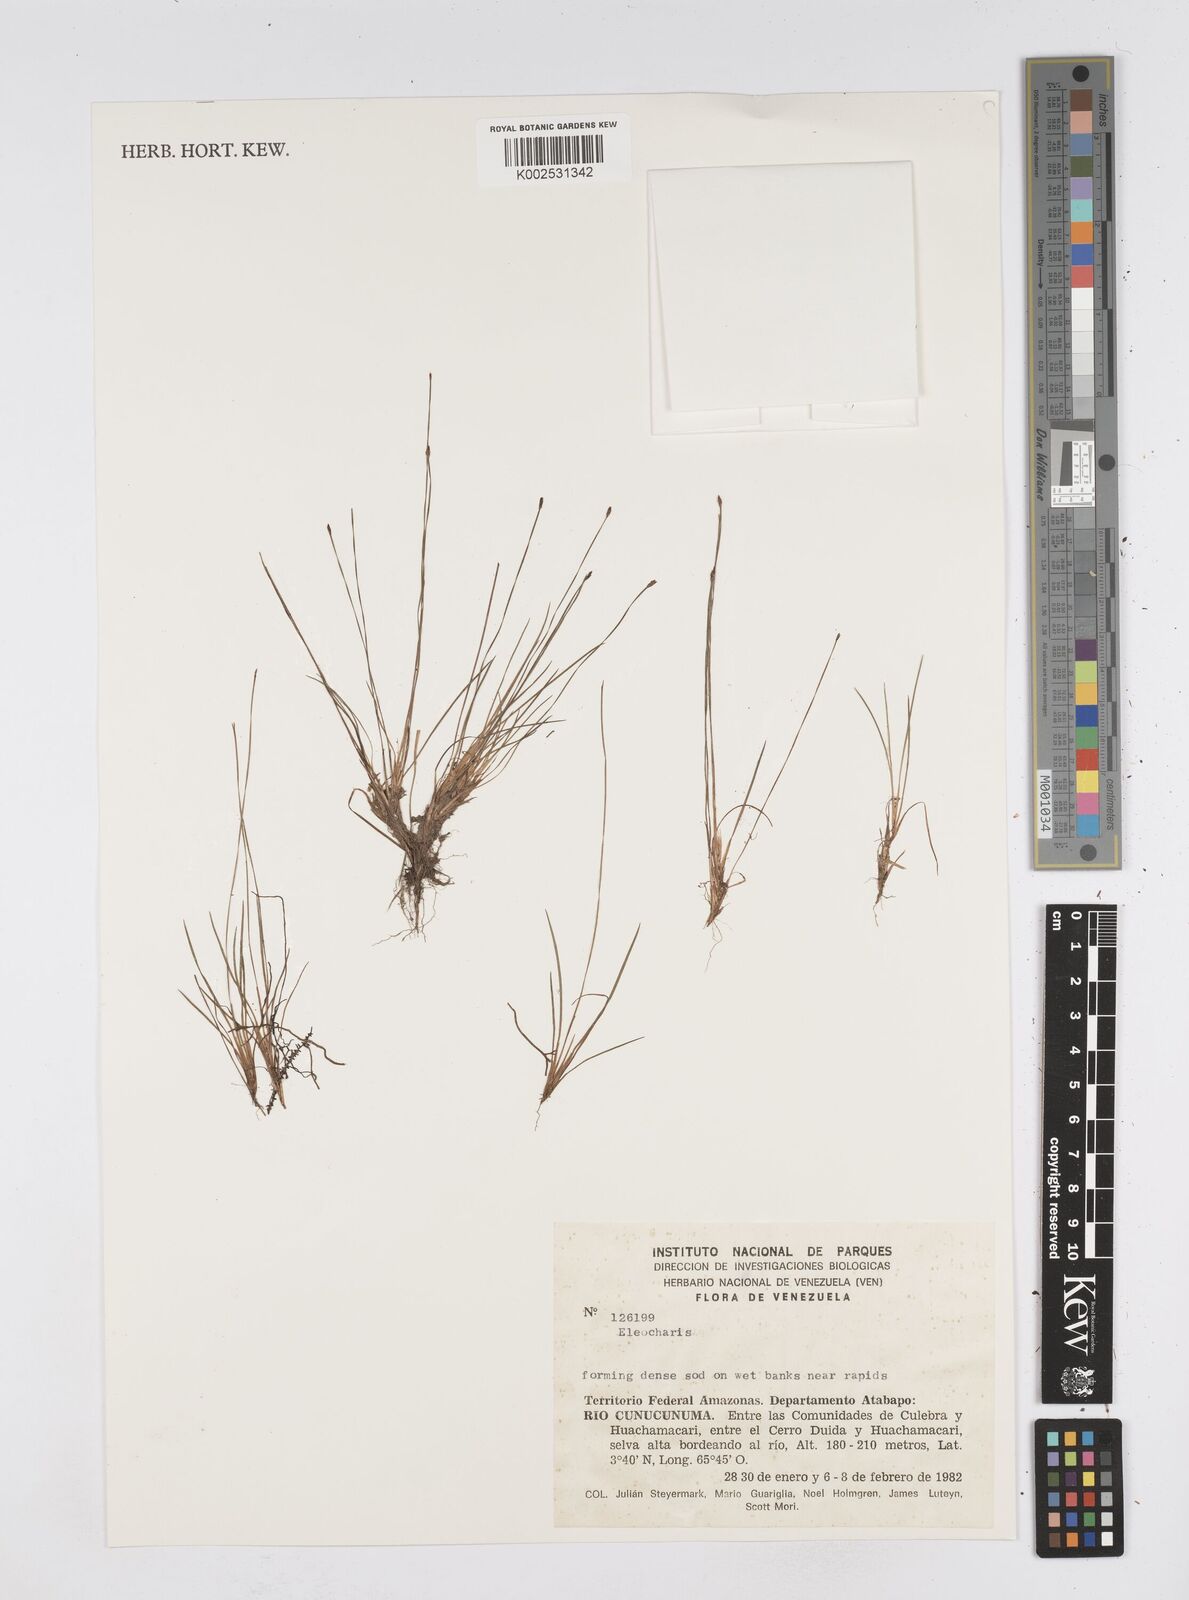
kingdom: Plantae
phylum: Tracheophyta
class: Liliopsida
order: Poales
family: Cyperaceae
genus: Eleocharis
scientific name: Eleocharis
